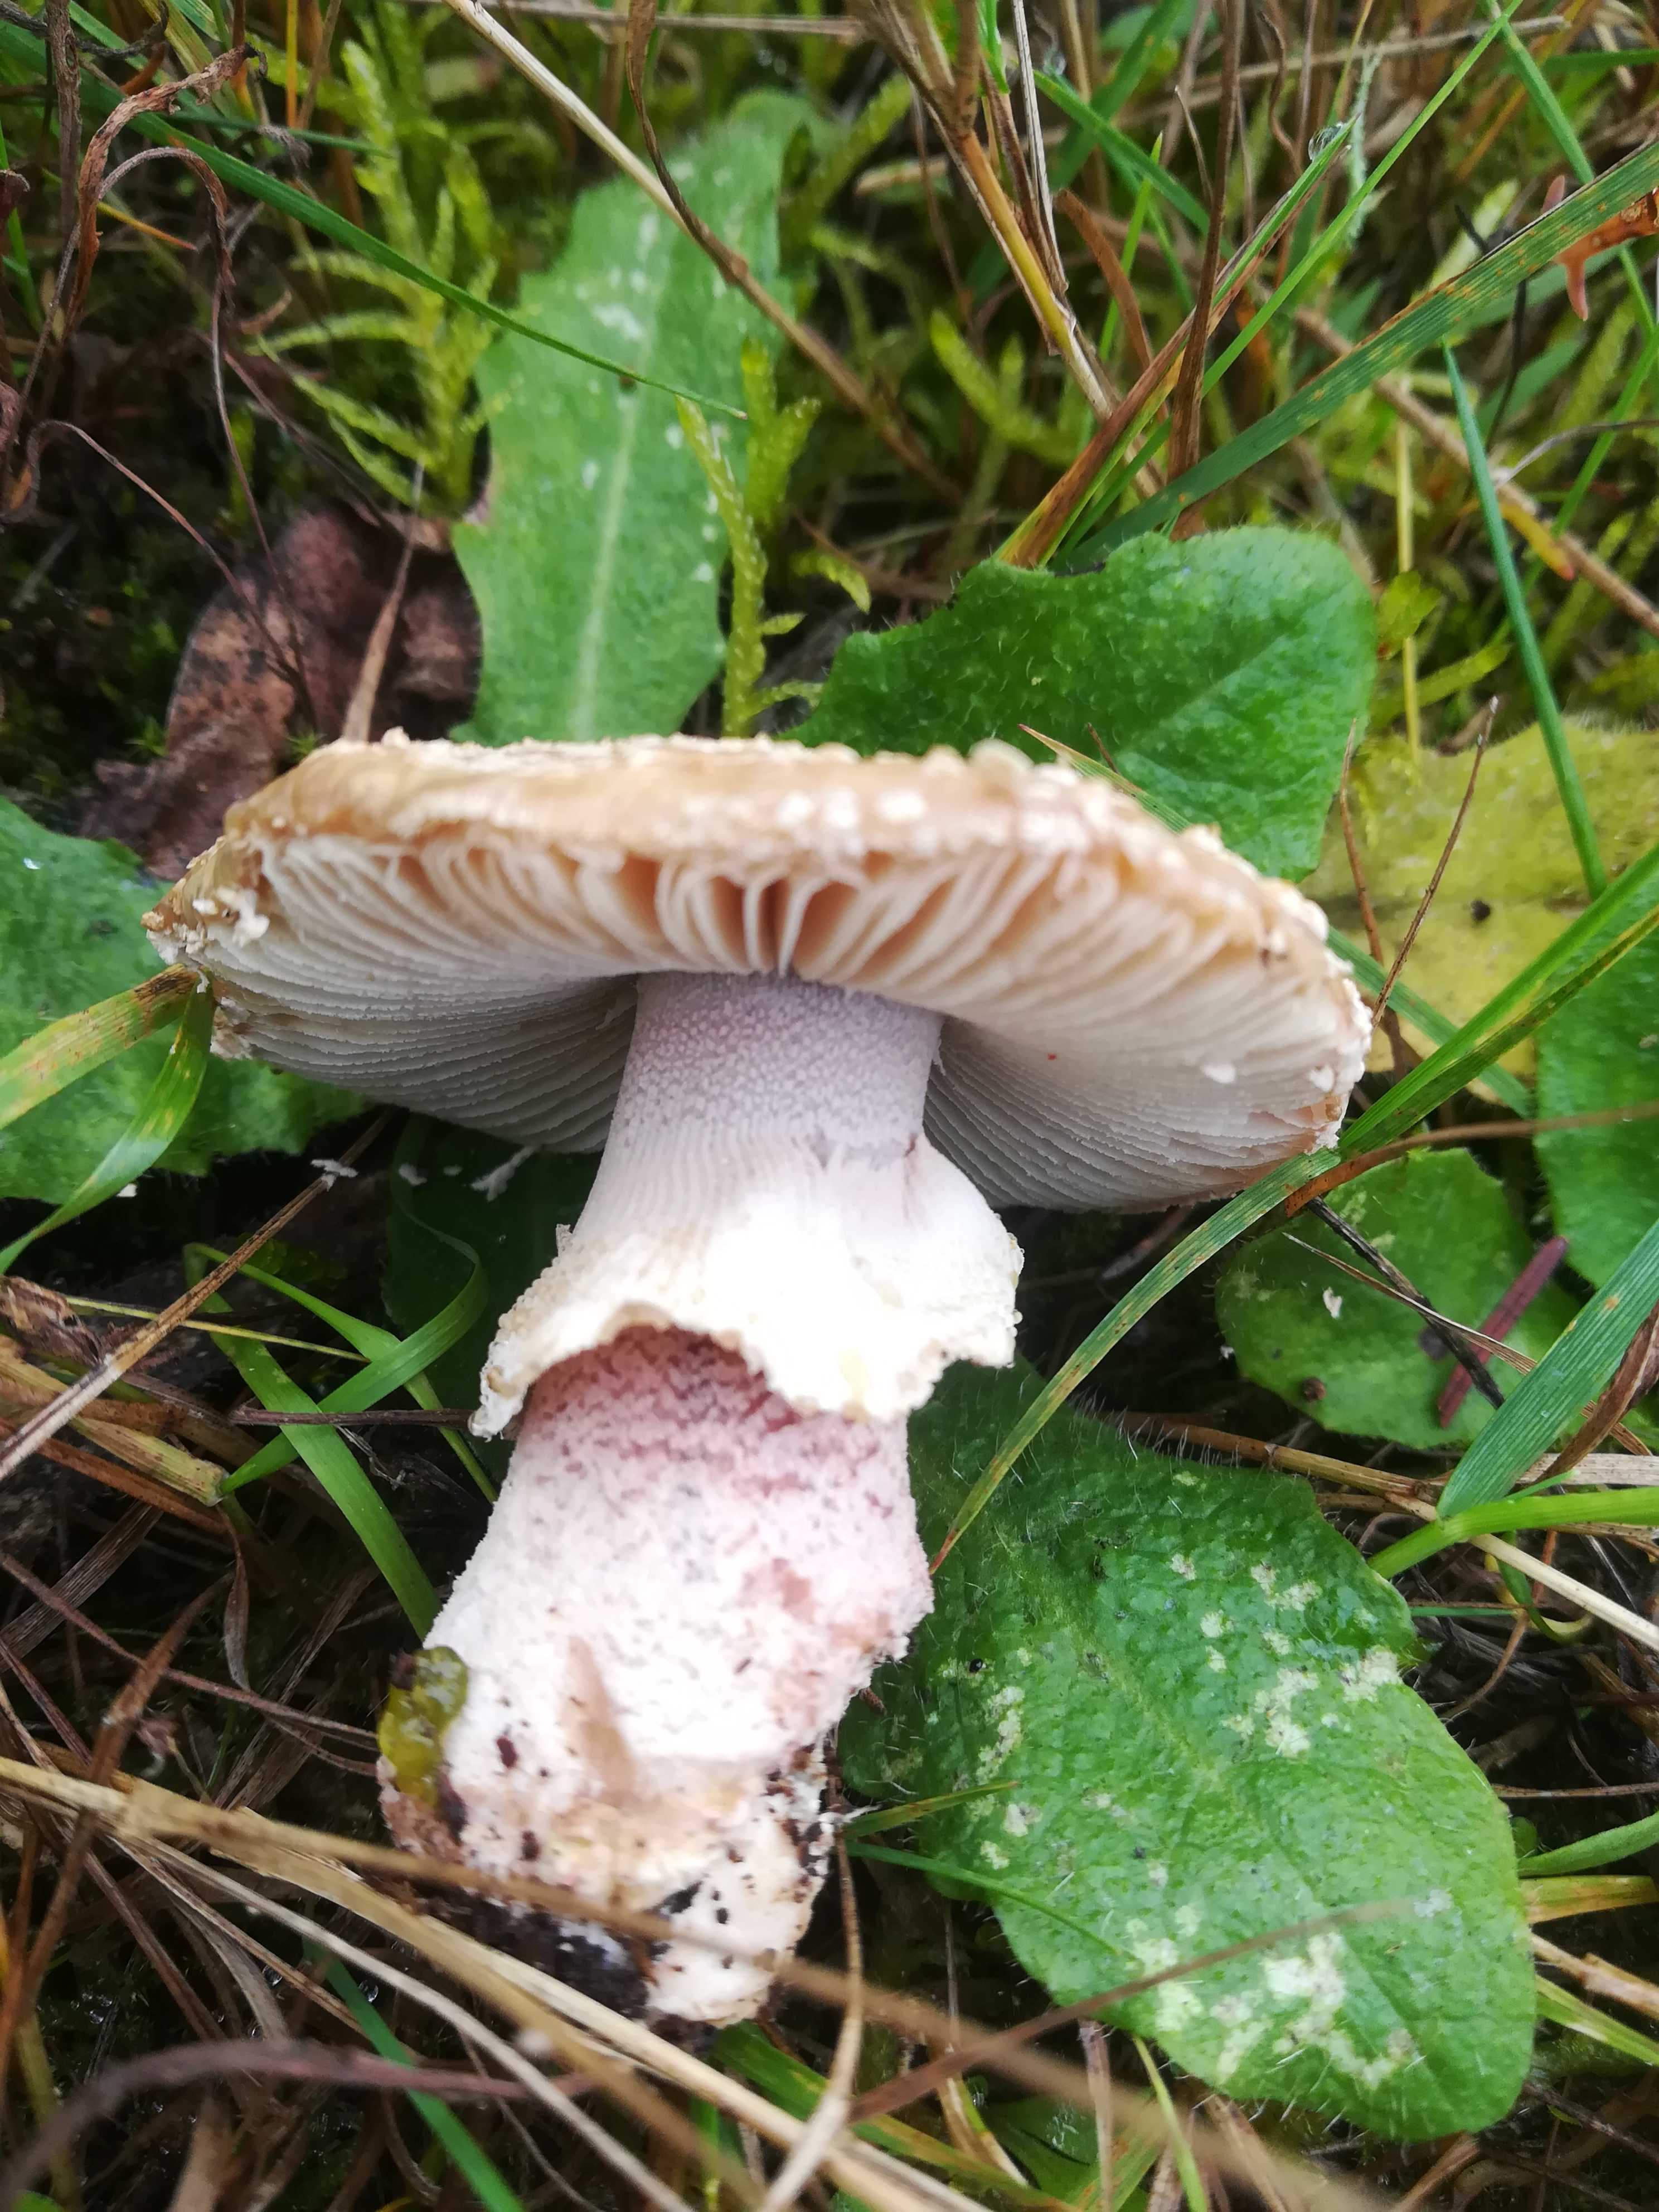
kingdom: Fungi
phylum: Basidiomycota
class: Agaricomycetes
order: Agaricales
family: Amanitaceae
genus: Amanita
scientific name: Amanita rubescens
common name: rødmende fluesvamp
